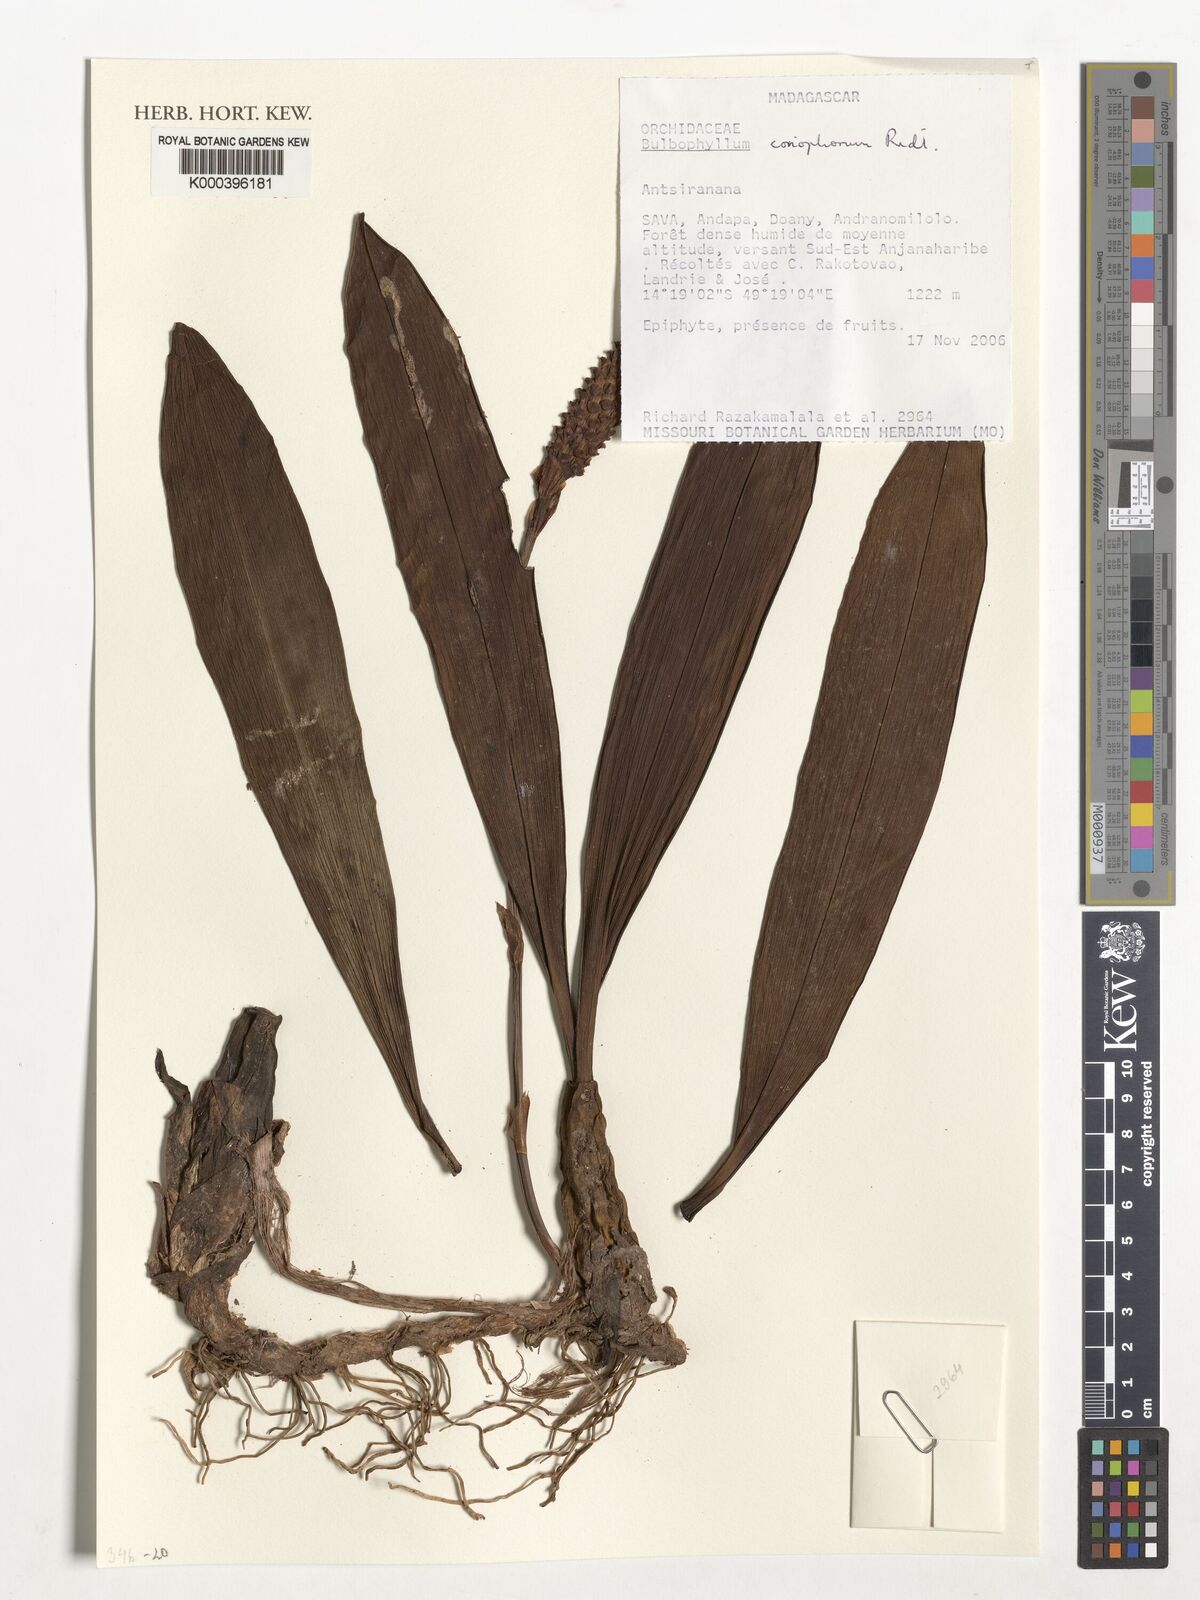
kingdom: Plantae
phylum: Tracheophyta
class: Liliopsida
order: Asparagales
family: Orchidaceae
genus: Bulbophyllum
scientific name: Bulbophyllum coriophorum
